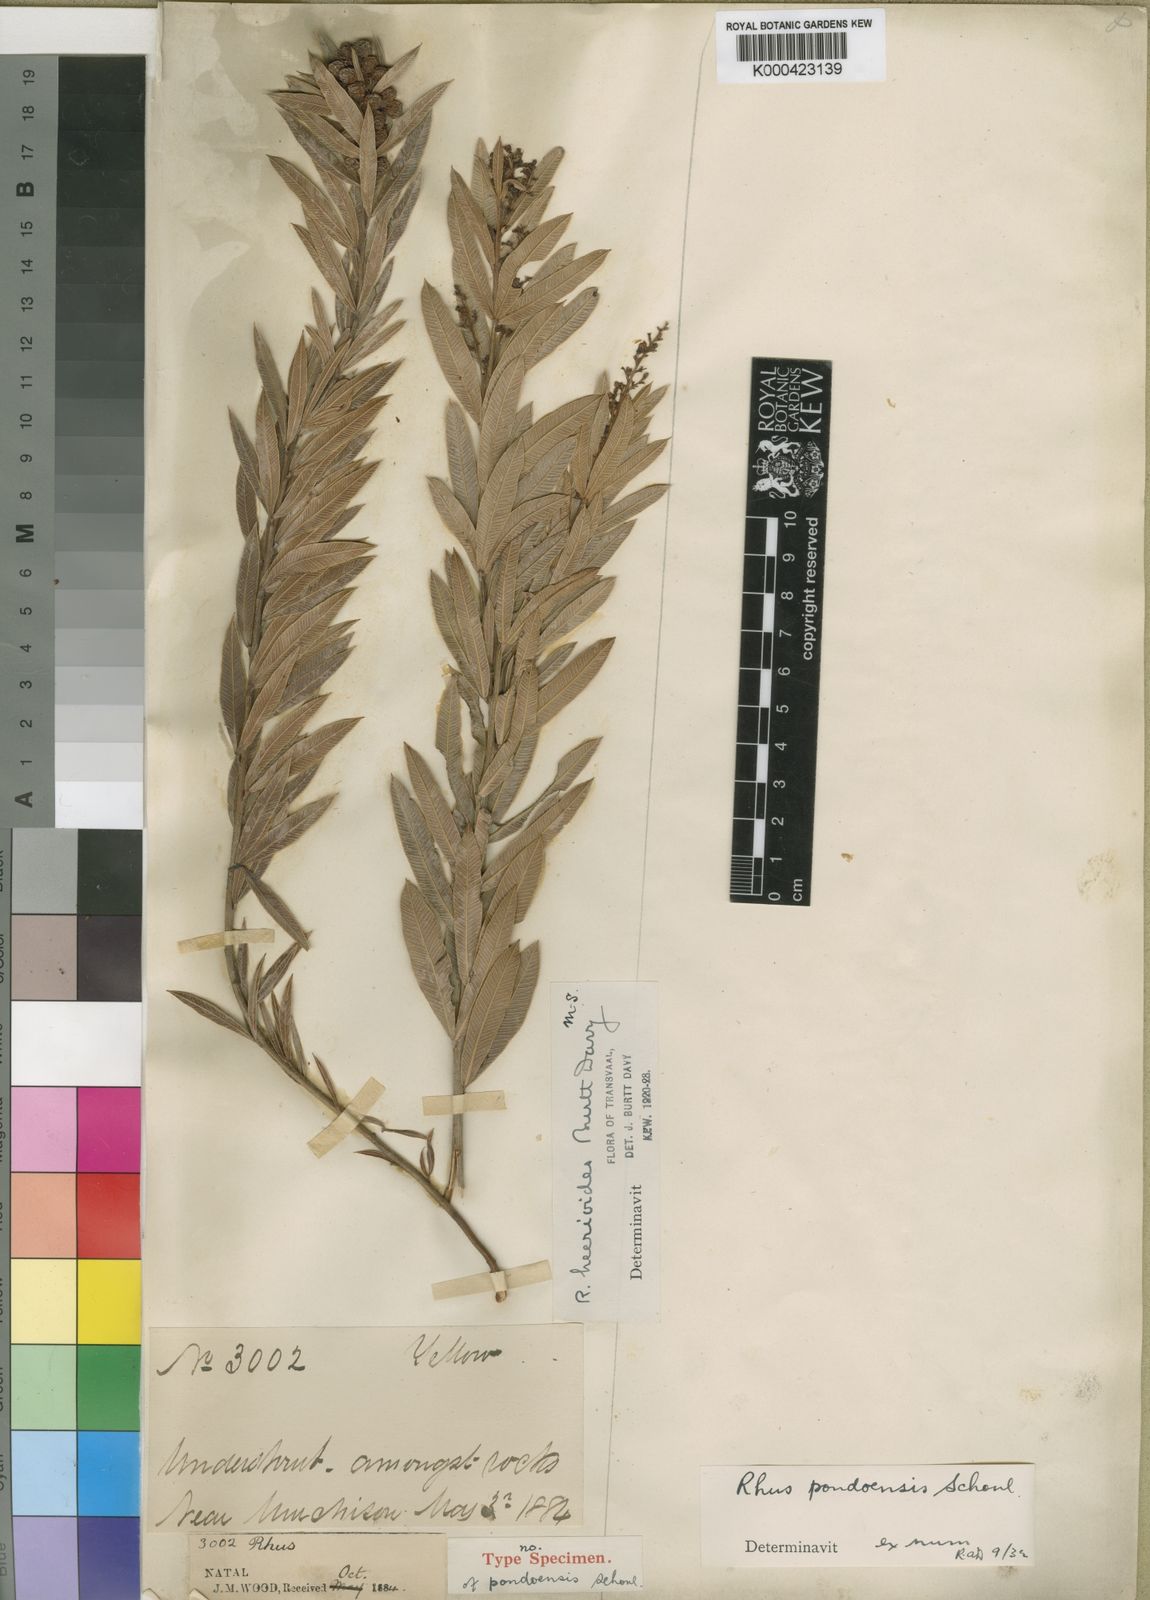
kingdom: Plantae
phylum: Tracheophyta
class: Magnoliopsida
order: Sapindales
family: Anacardiaceae
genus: Rhus
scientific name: Rhus
